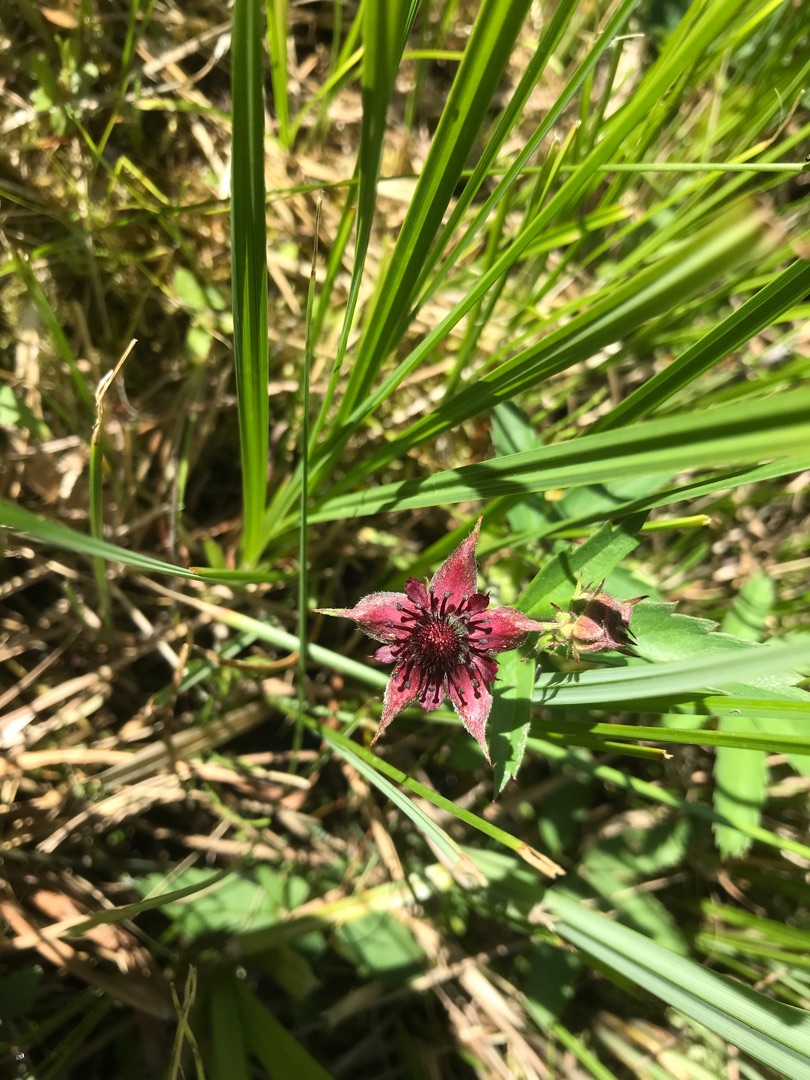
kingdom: Plantae
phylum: Tracheophyta
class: Magnoliopsida
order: Rosales
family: Rosaceae
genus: Comarum
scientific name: Comarum palustre
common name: Kragefod
